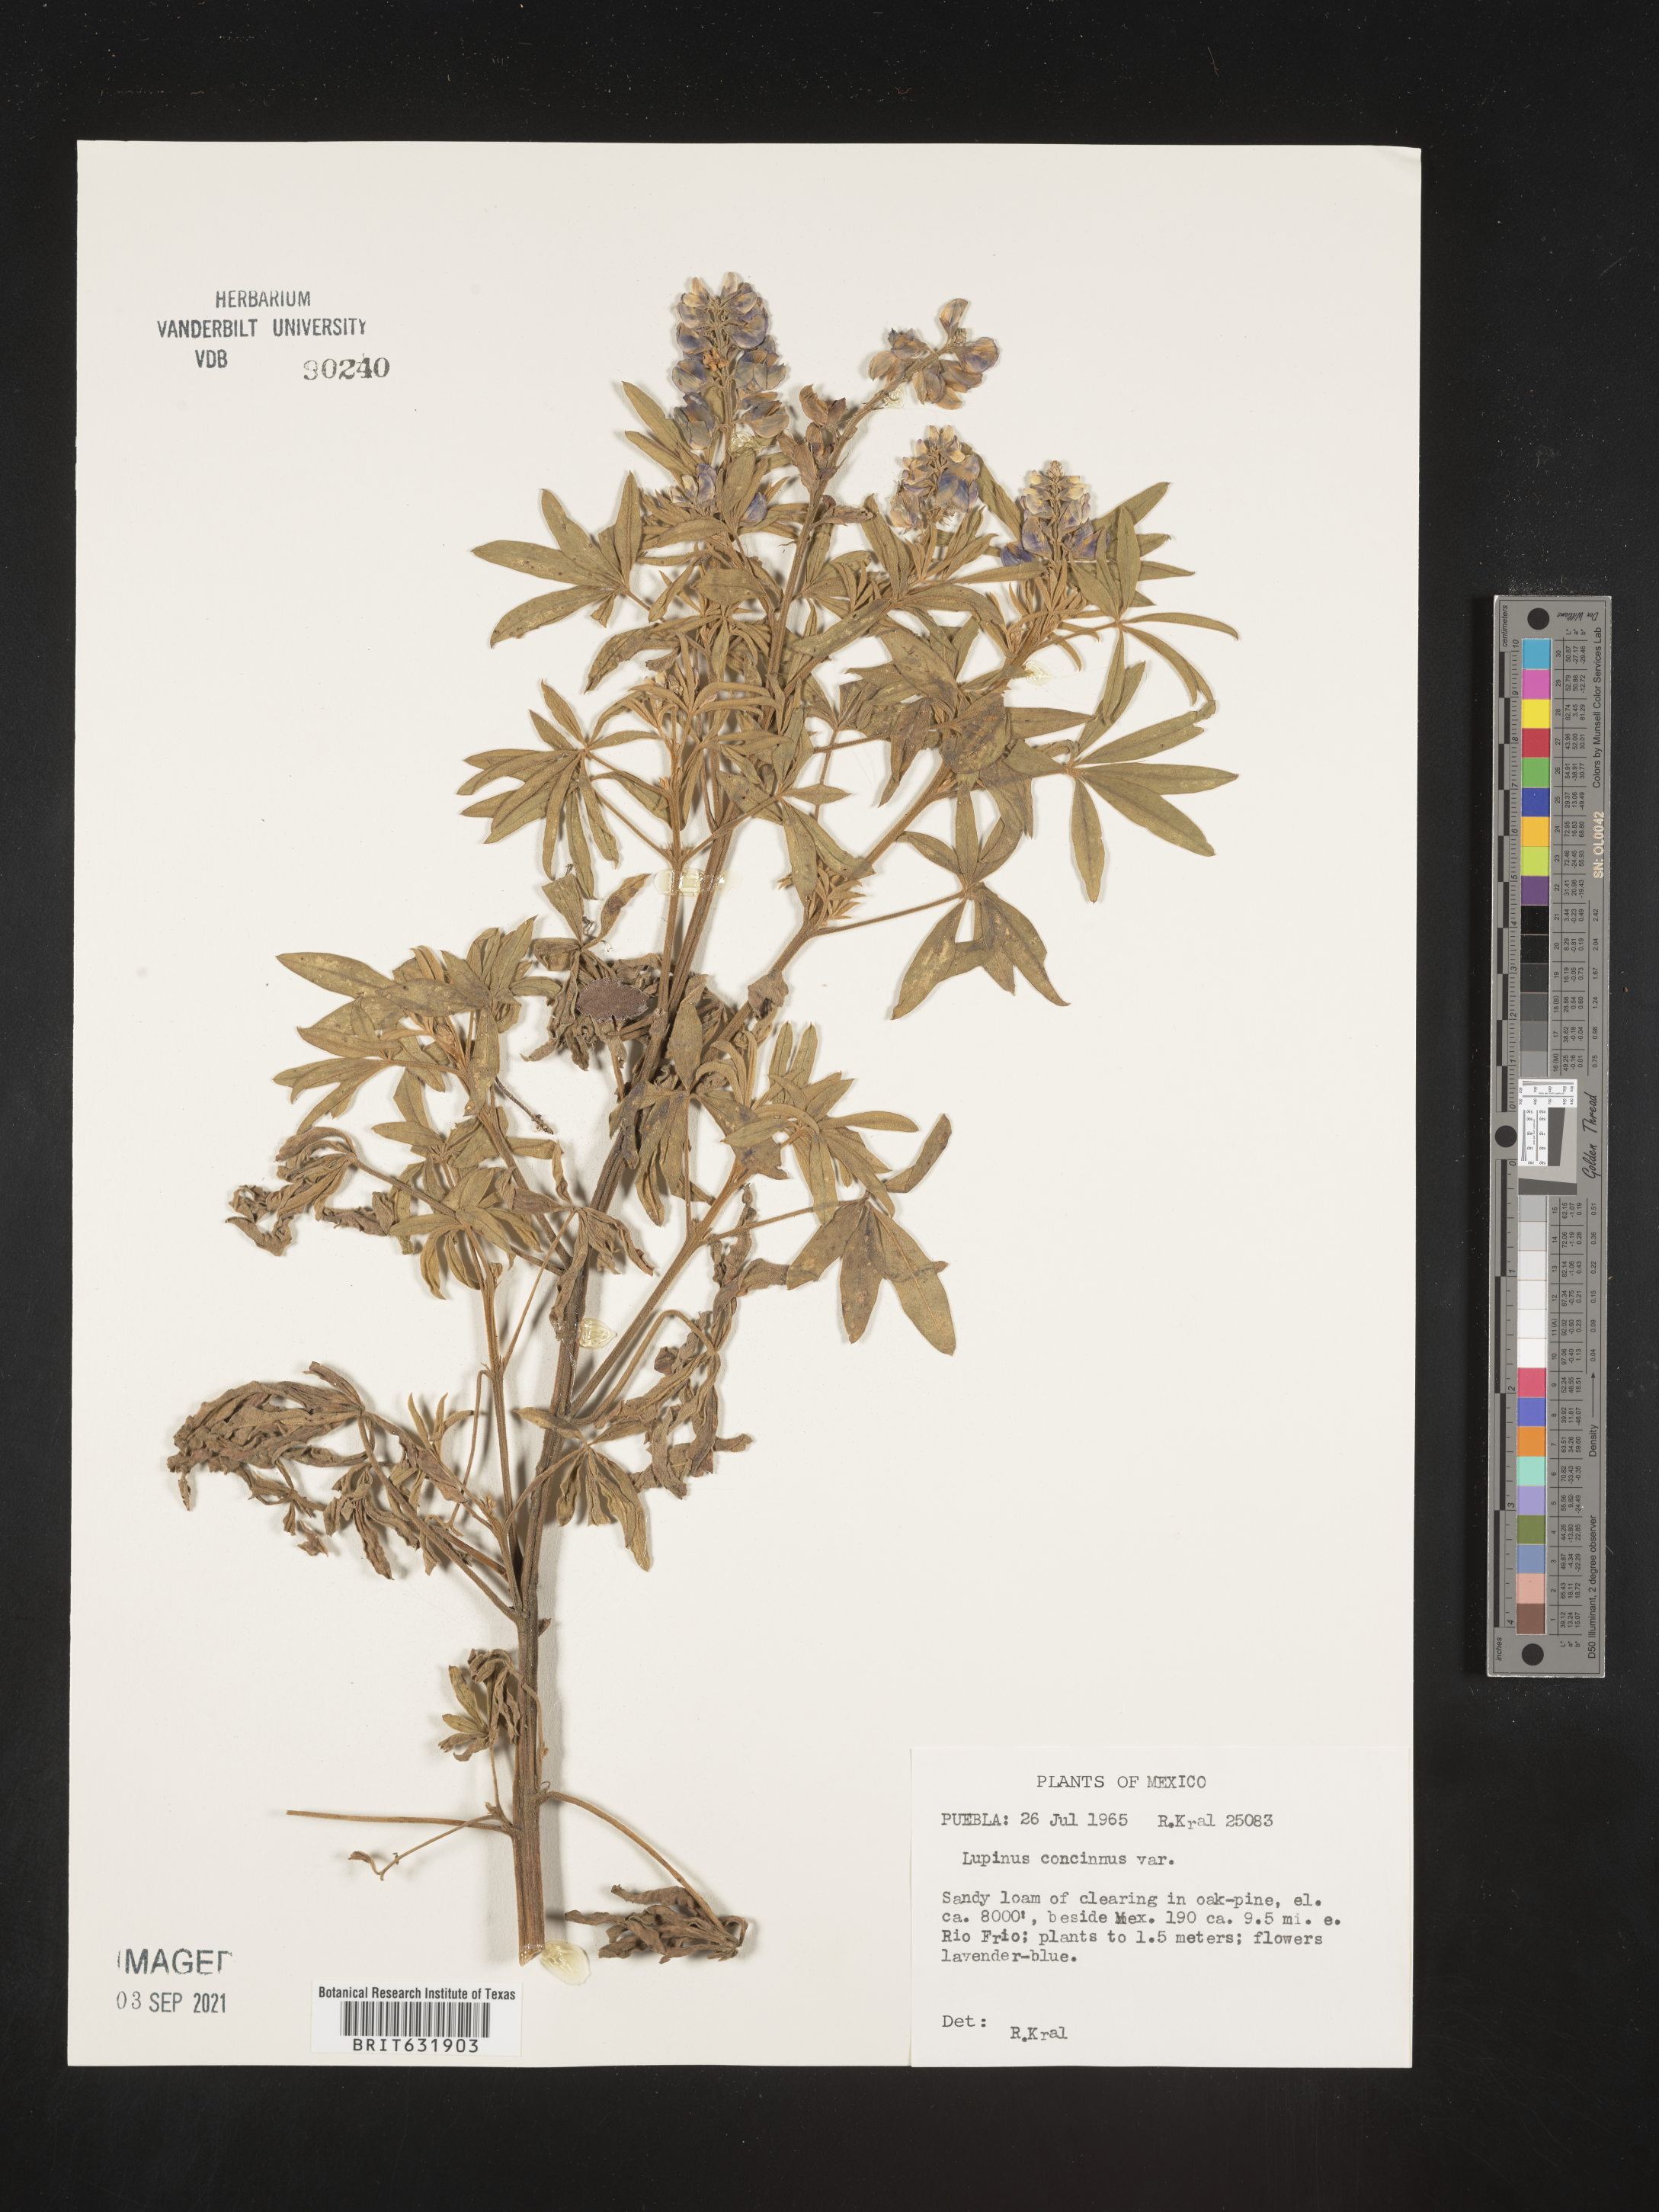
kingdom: Plantae
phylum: Tracheophyta
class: Magnoliopsida
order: Fabales
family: Fabaceae
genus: Lupinus
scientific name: Lupinus
